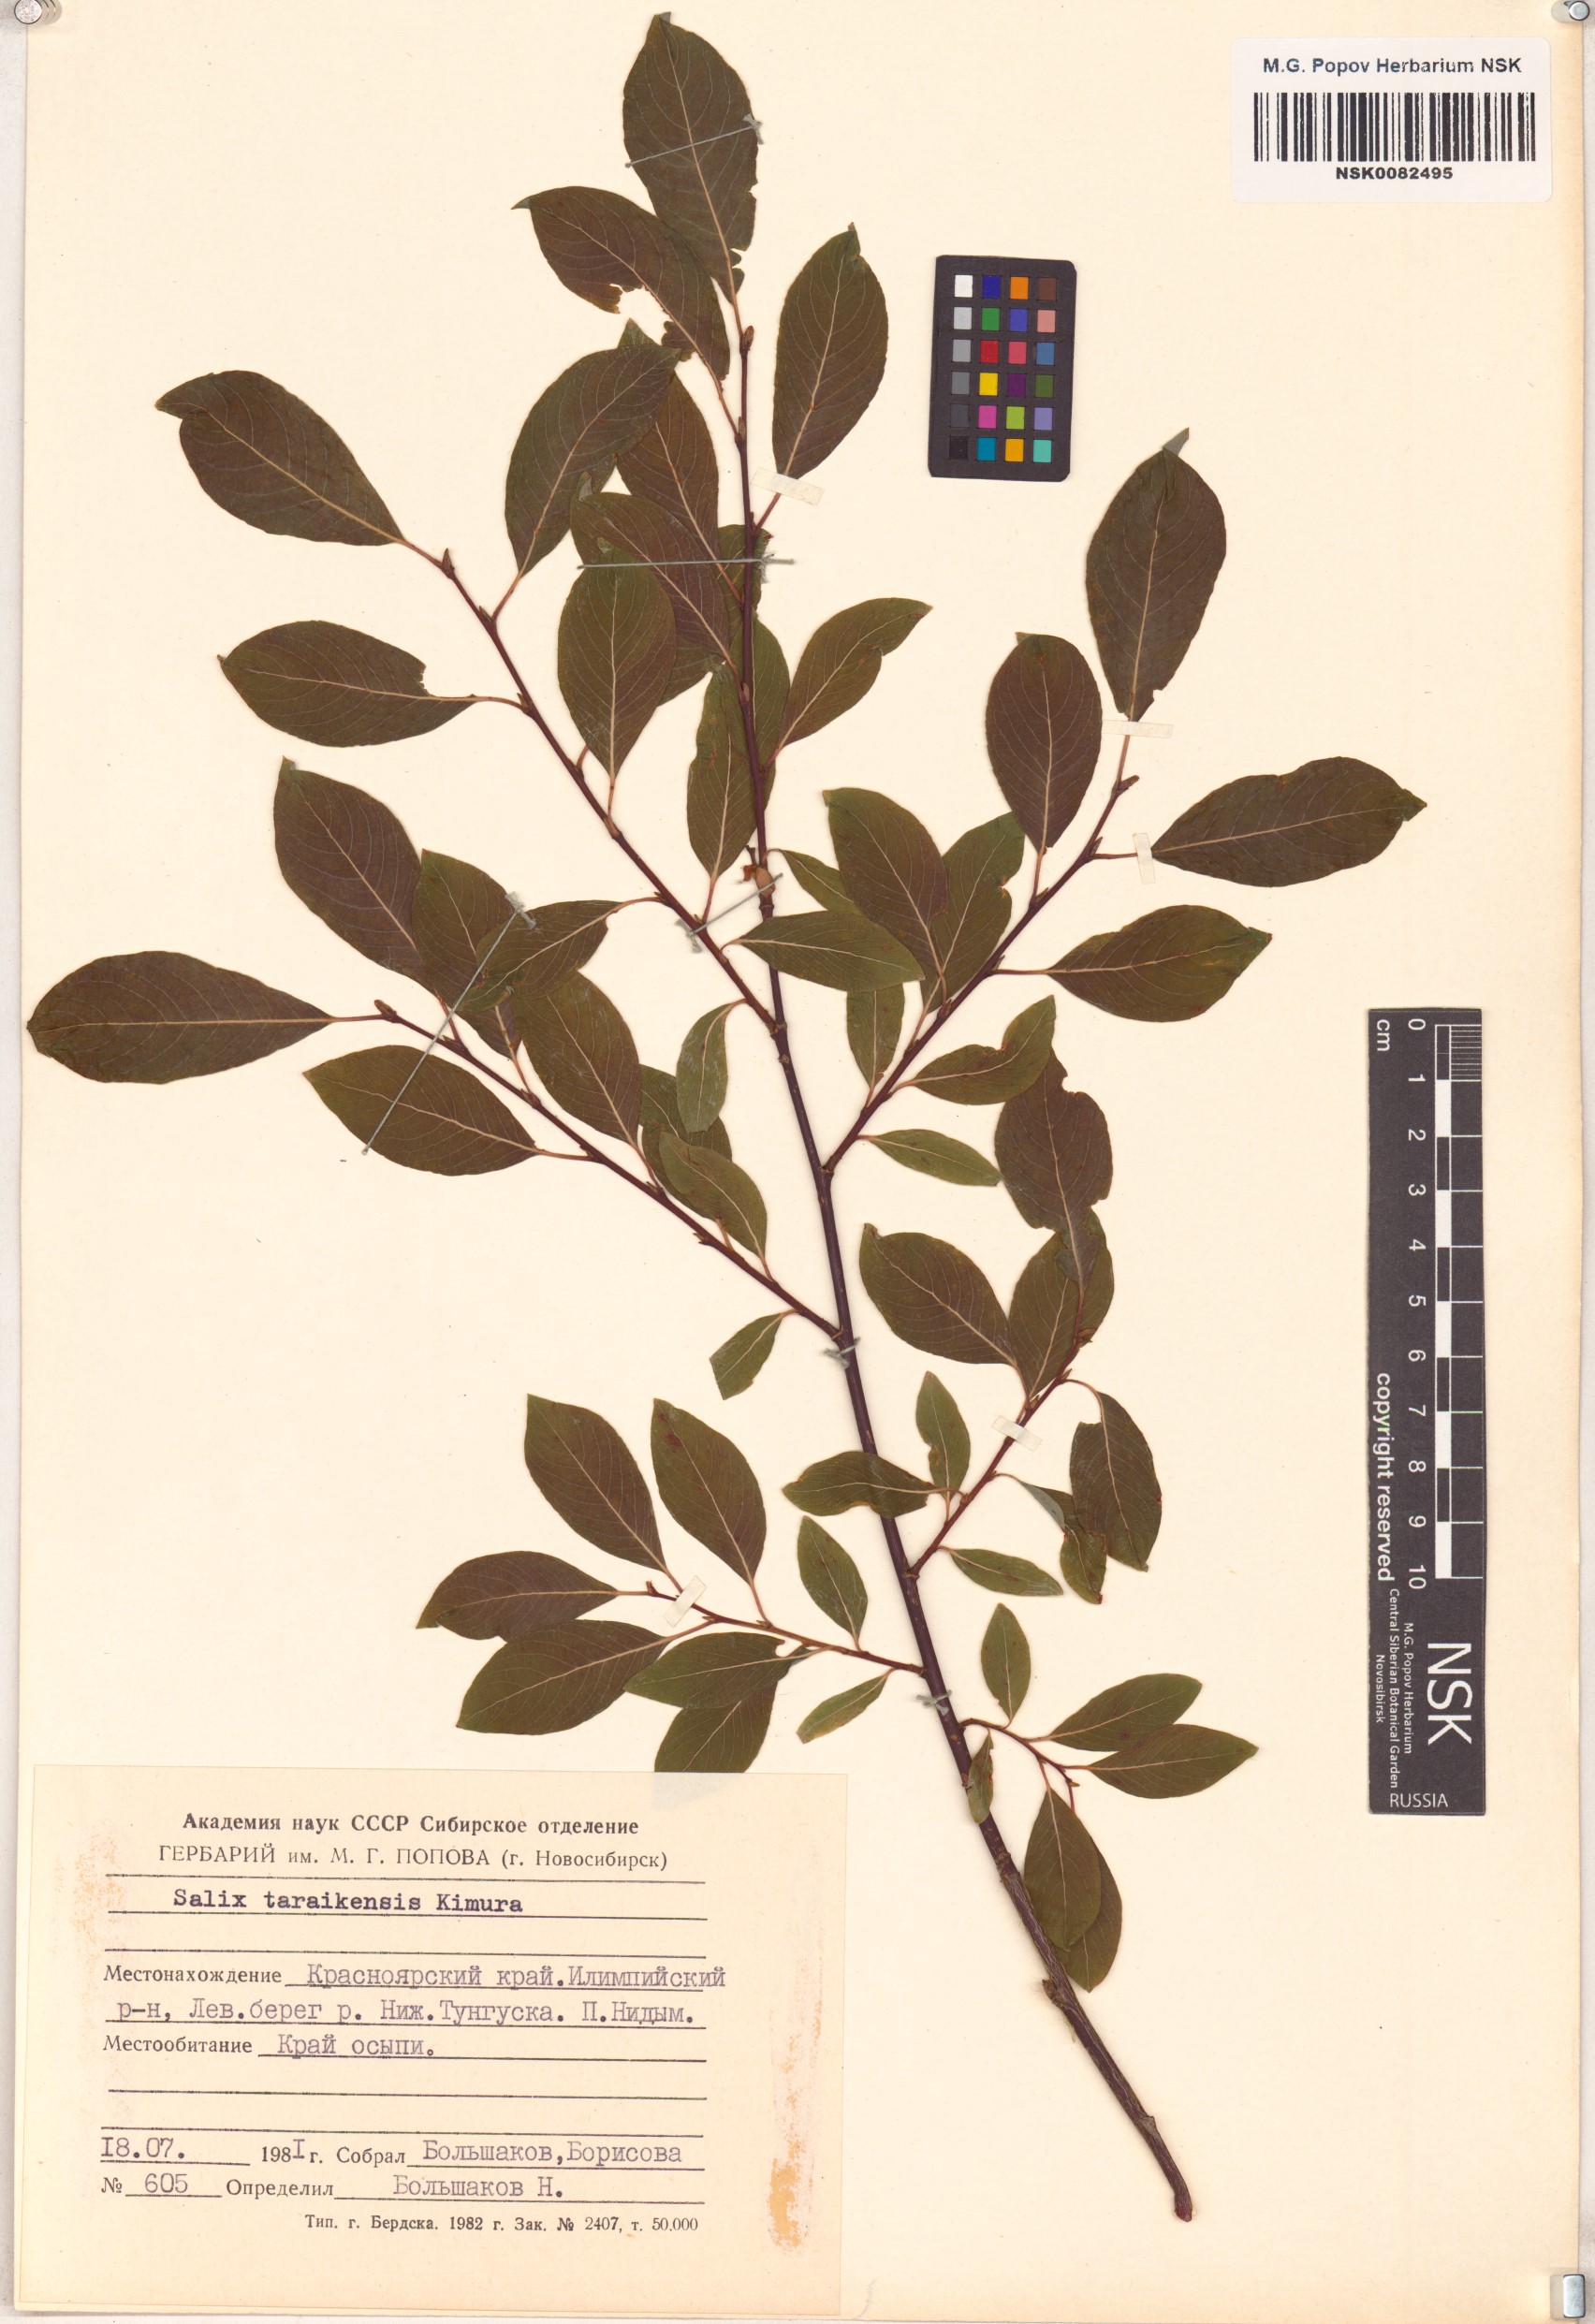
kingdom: Plantae
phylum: Tracheophyta
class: Magnoliopsida
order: Malpighiales
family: Salicaceae
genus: Salix
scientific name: Salix taraikensis
